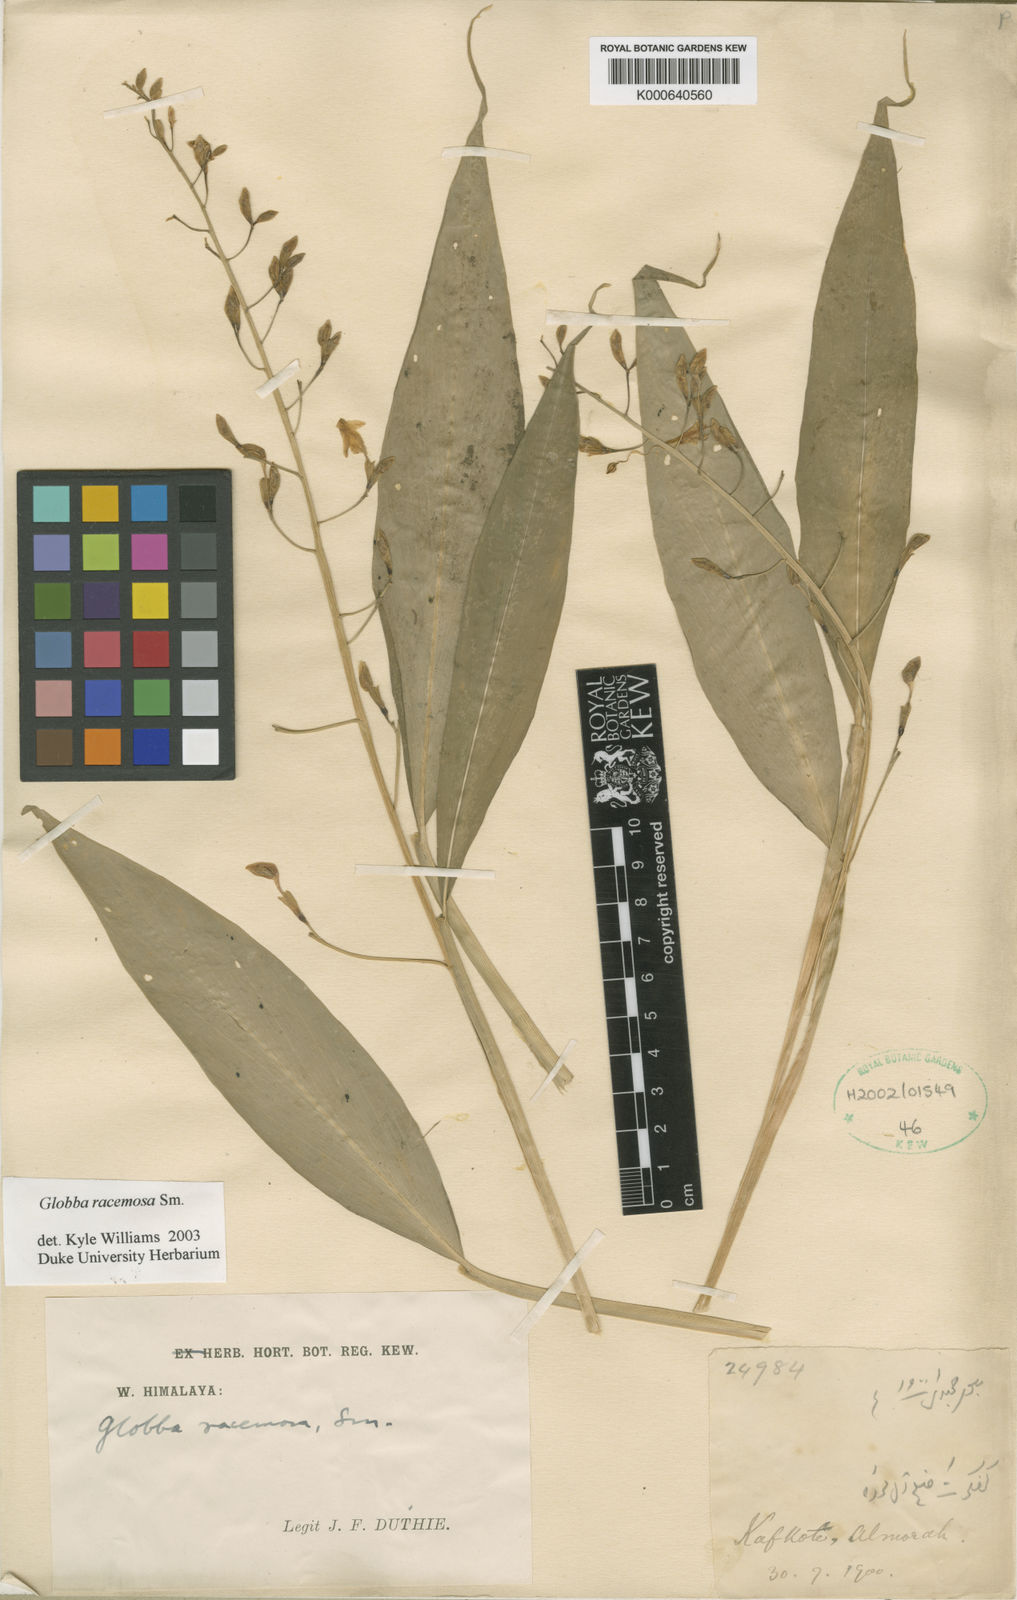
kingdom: Plantae
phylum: Tracheophyta
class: Liliopsida
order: Zingiberales
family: Zingiberaceae
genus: Globba
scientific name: Globba racemosa
